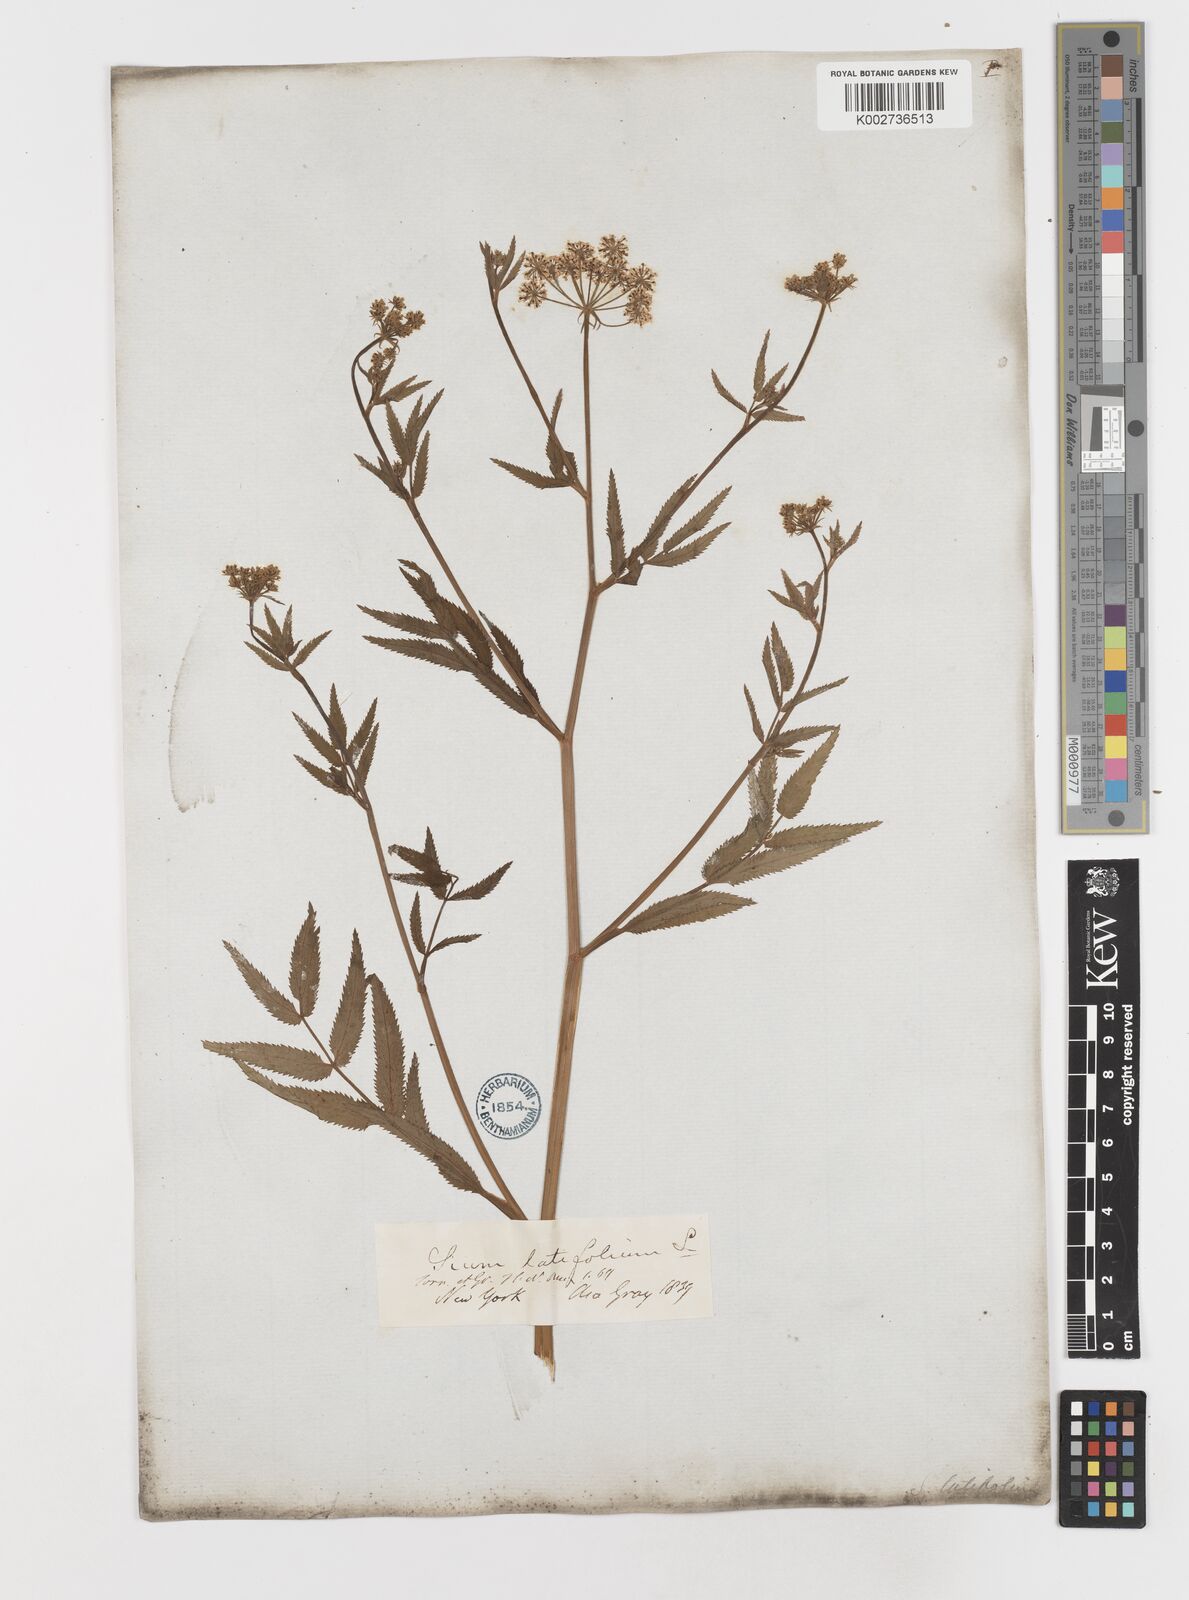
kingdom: Plantae
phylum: Tracheophyta
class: Magnoliopsida
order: Apiales
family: Apiaceae
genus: Sium
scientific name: Sium suave
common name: Hemlock water-parsnip
